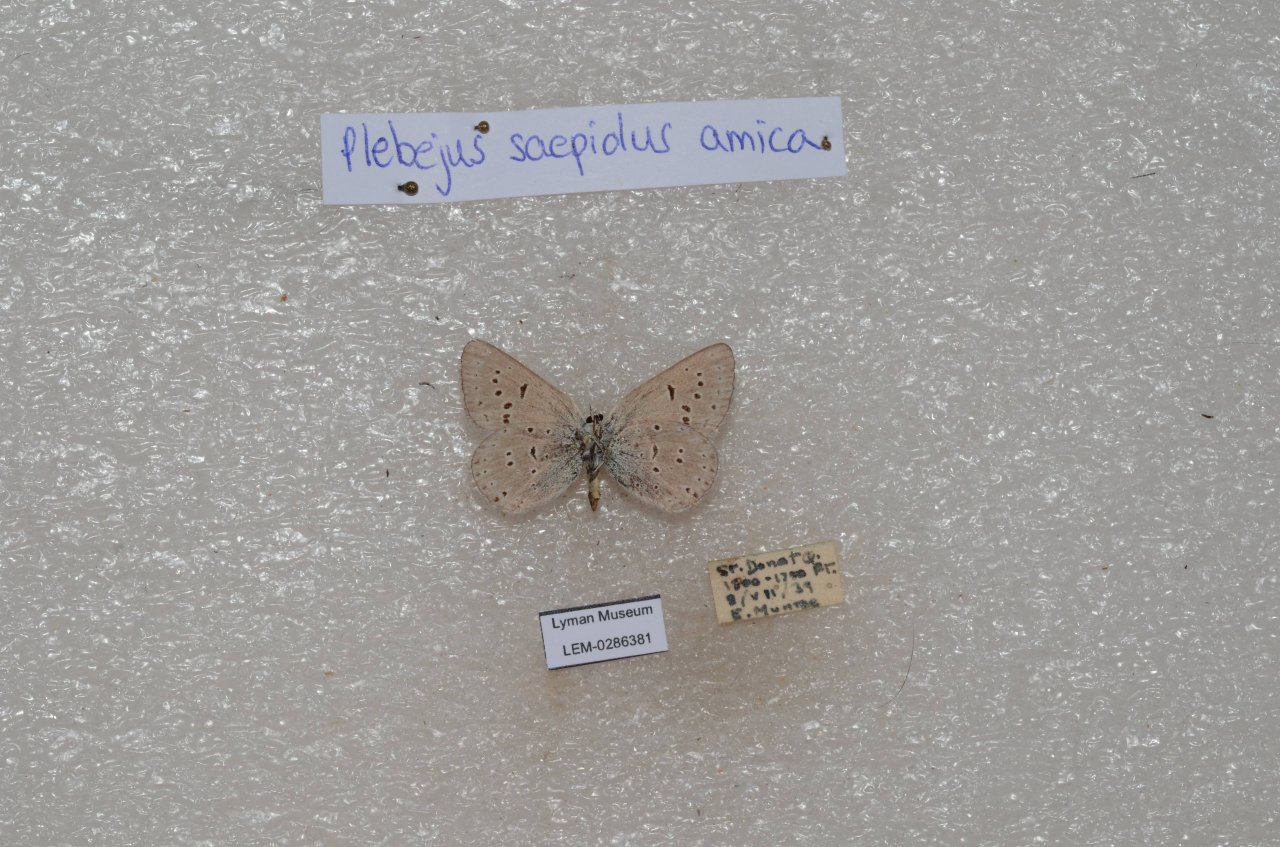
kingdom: Animalia
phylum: Arthropoda
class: Insecta
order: Lepidoptera
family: Lycaenidae
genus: Plebejus
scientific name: Plebejus saepiolus
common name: Greenish Blue
